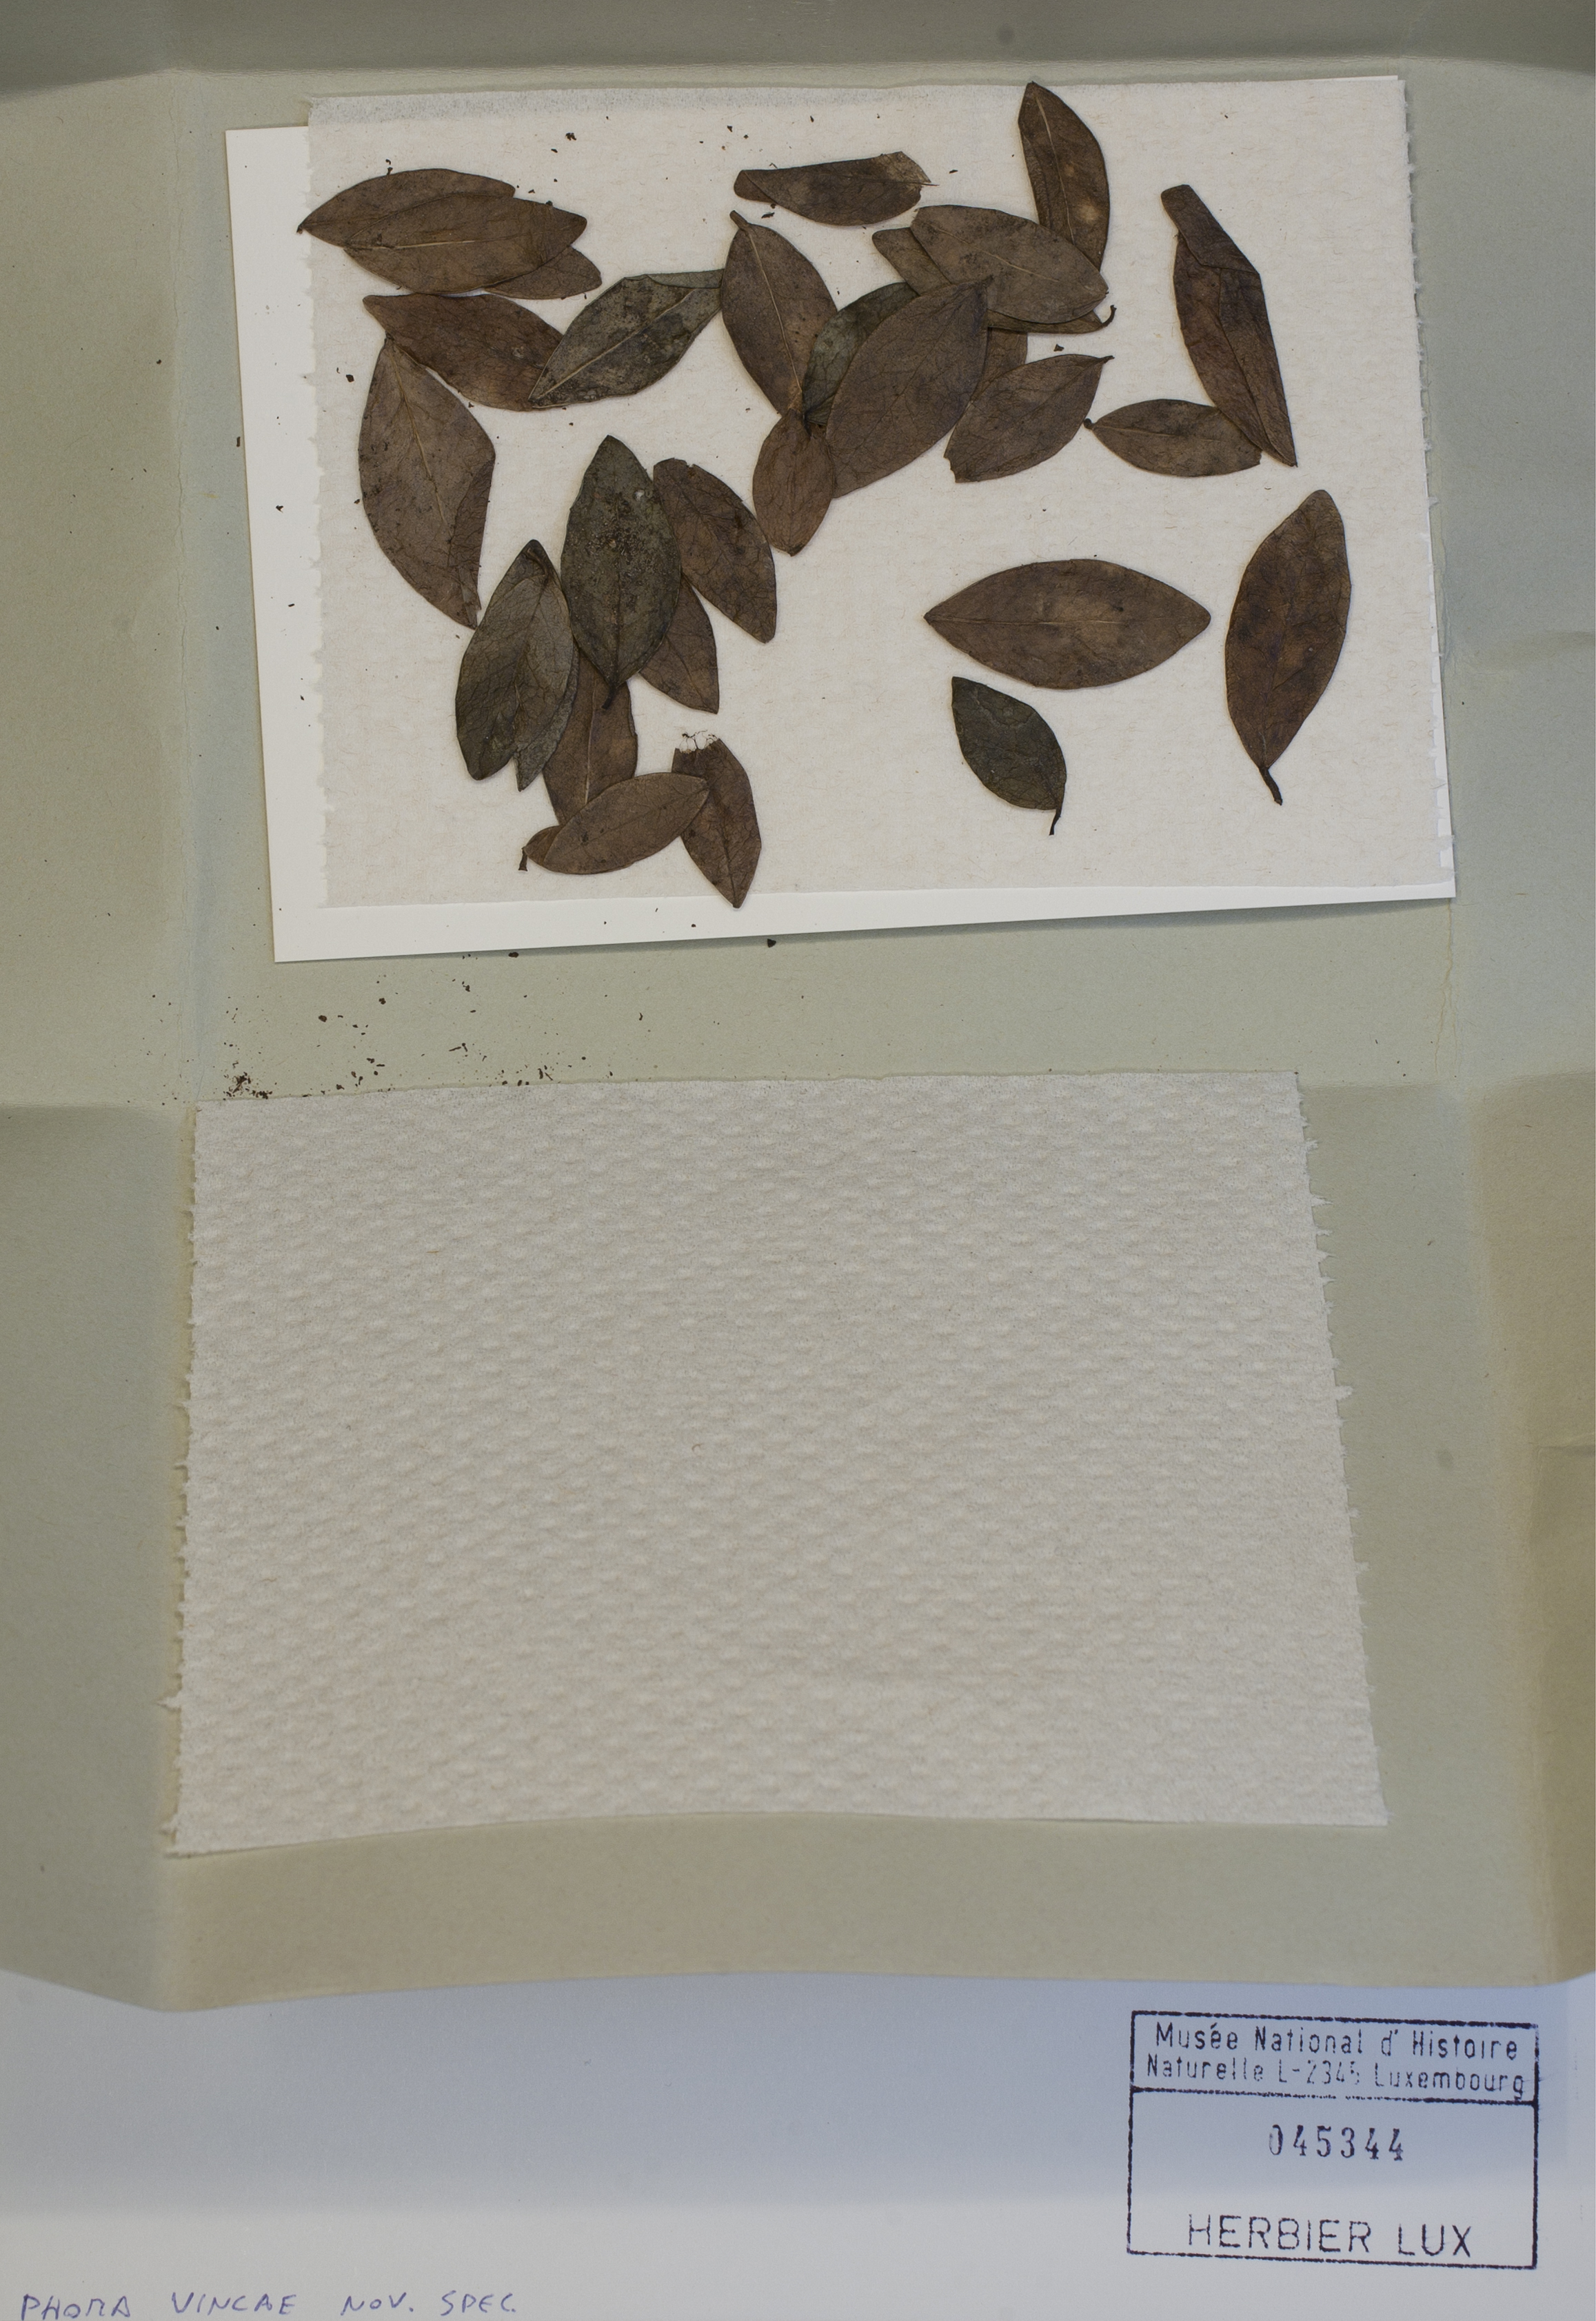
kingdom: Fungi
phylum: Ascomycota
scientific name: Ascomycota
